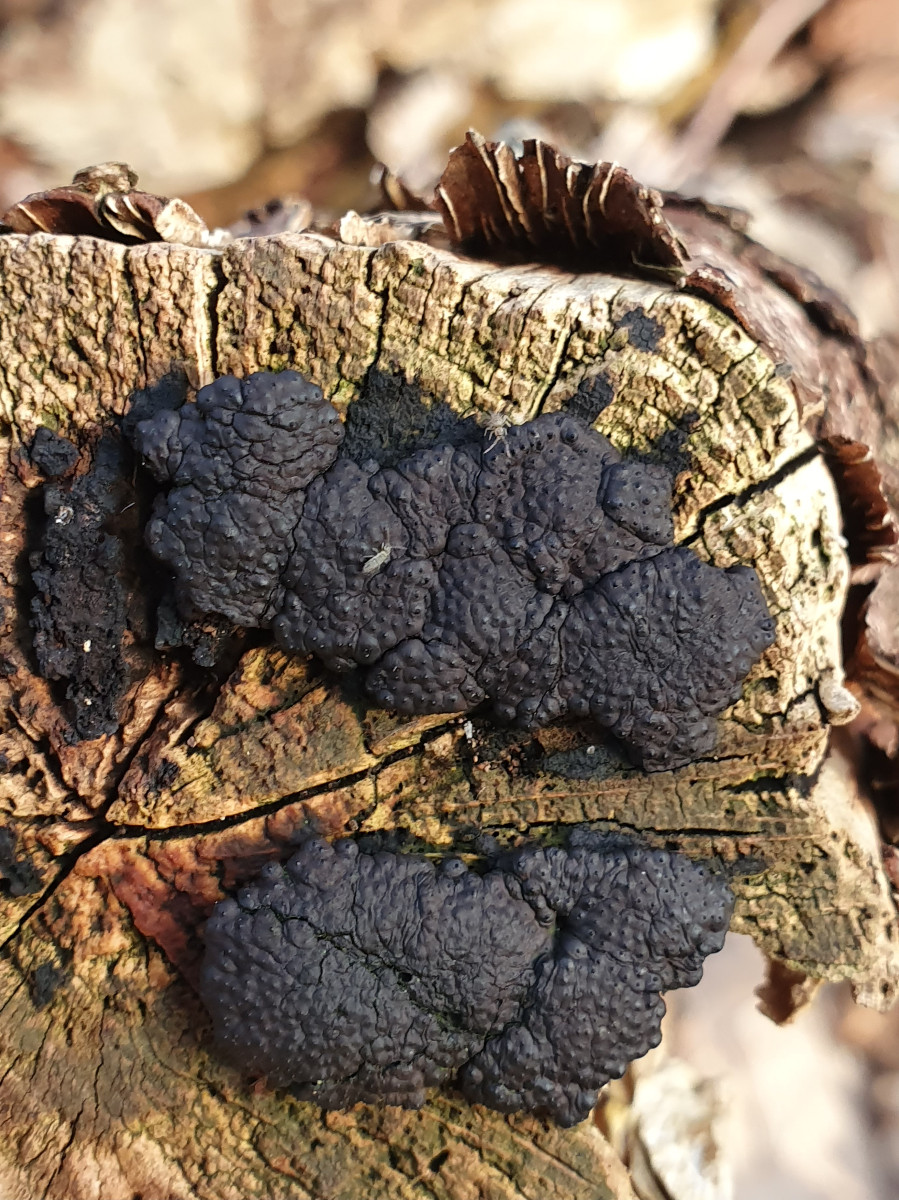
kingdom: Fungi
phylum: Ascomycota
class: Sordariomycetes
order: Xylariales
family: Hypoxylaceae
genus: Jackrogersella
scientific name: Jackrogersella multiformis
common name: foranderlig kulbær
